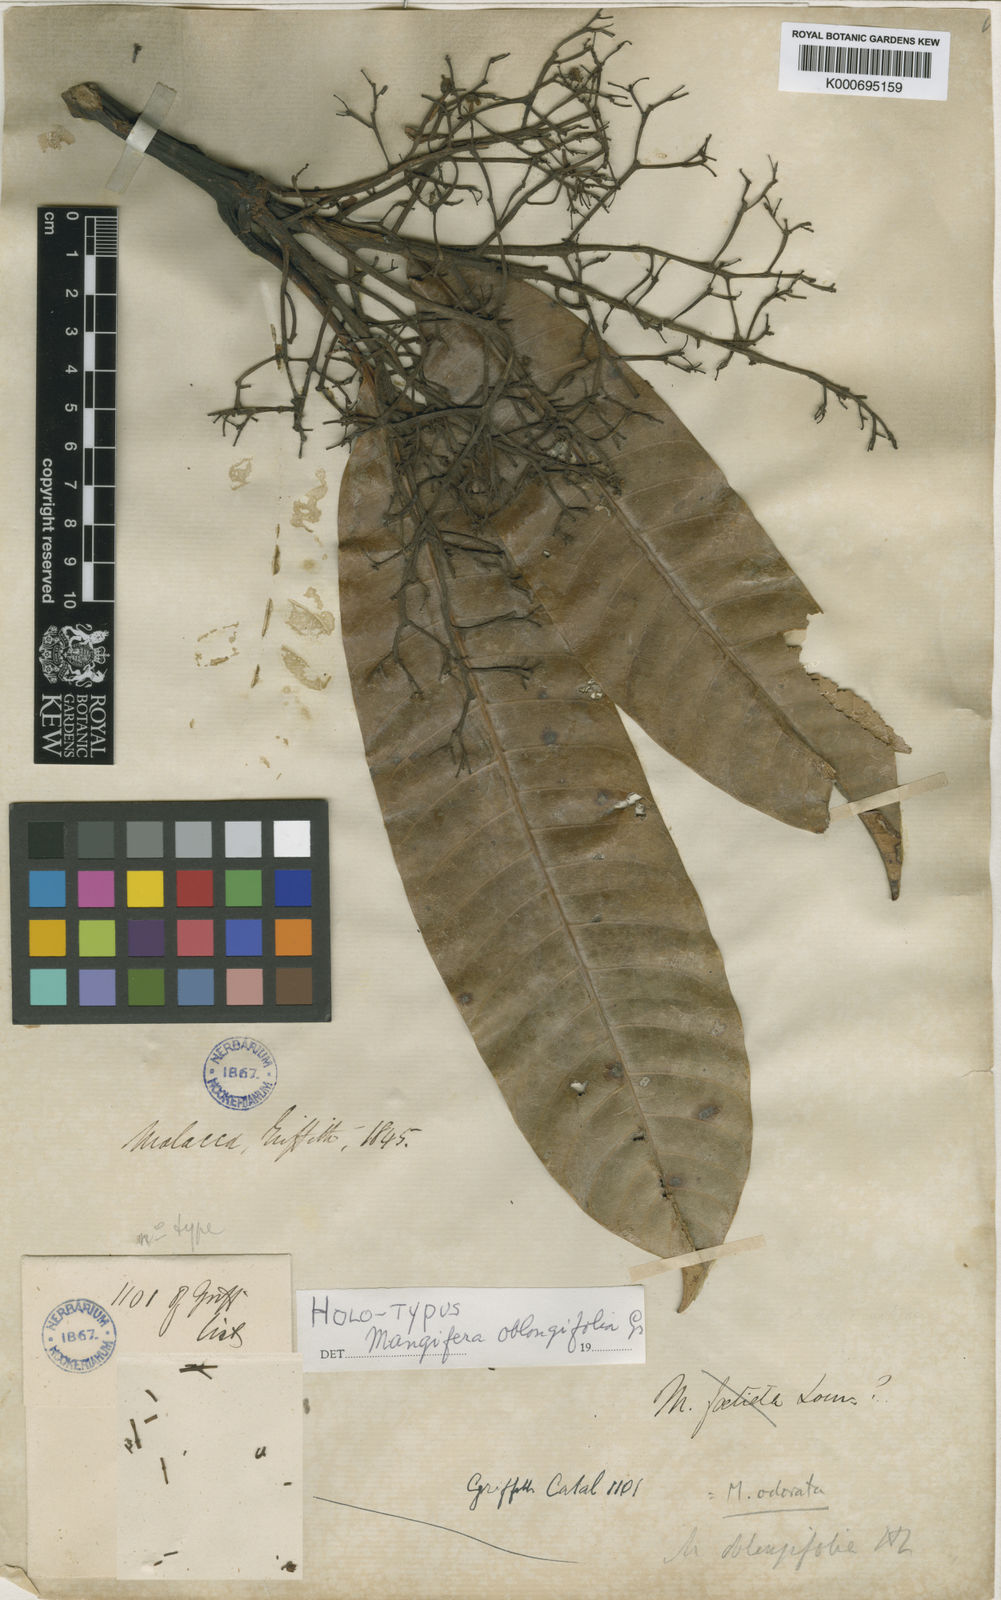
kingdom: Plantae
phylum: Tracheophyta
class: Magnoliopsida
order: Sapindales
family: Anacardiaceae
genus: Mangifera
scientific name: Mangifera odorata
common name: Saipan mango
